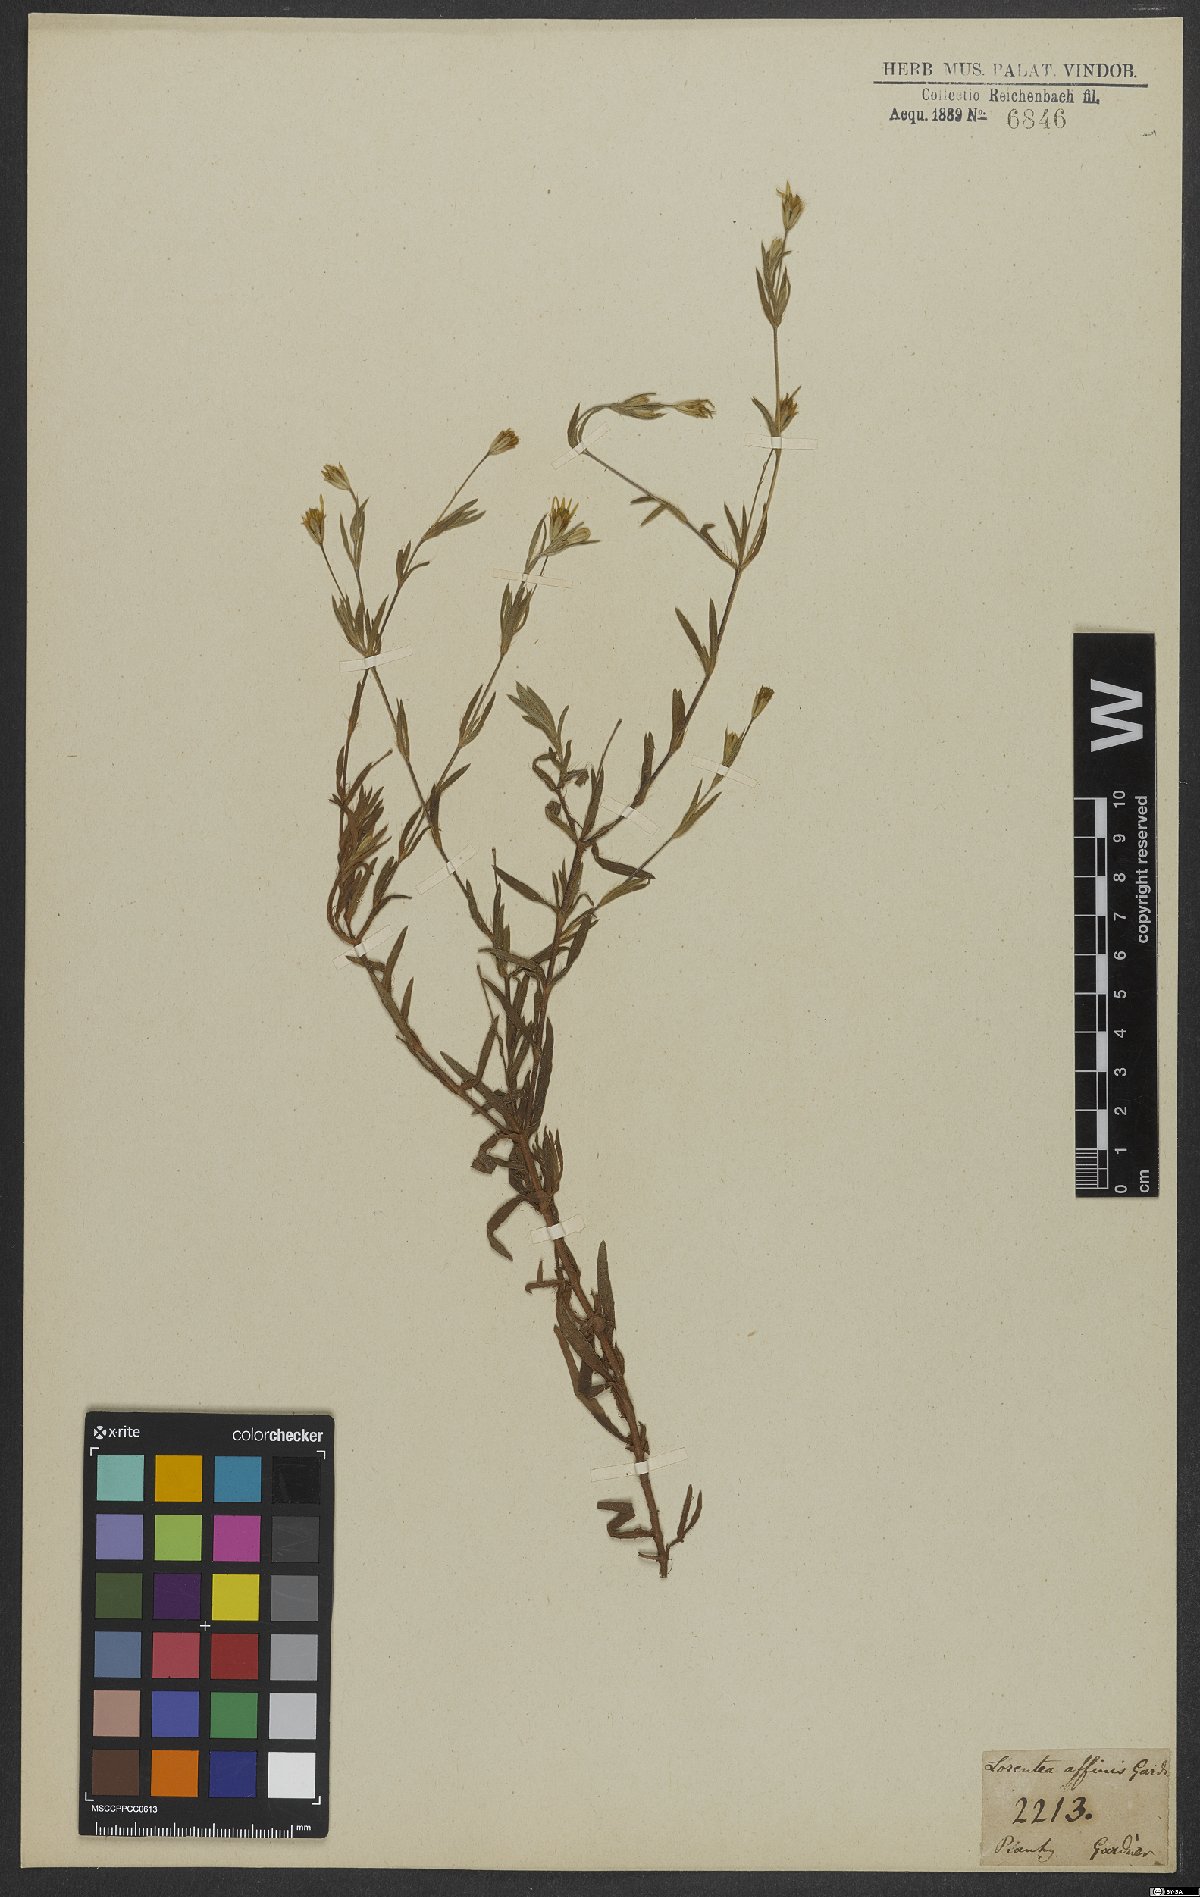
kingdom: Plantae
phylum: Tracheophyta
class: Magnoliopsida
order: Asterales
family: Asteraceae
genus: Pectis
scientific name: Pectis oligocephala
